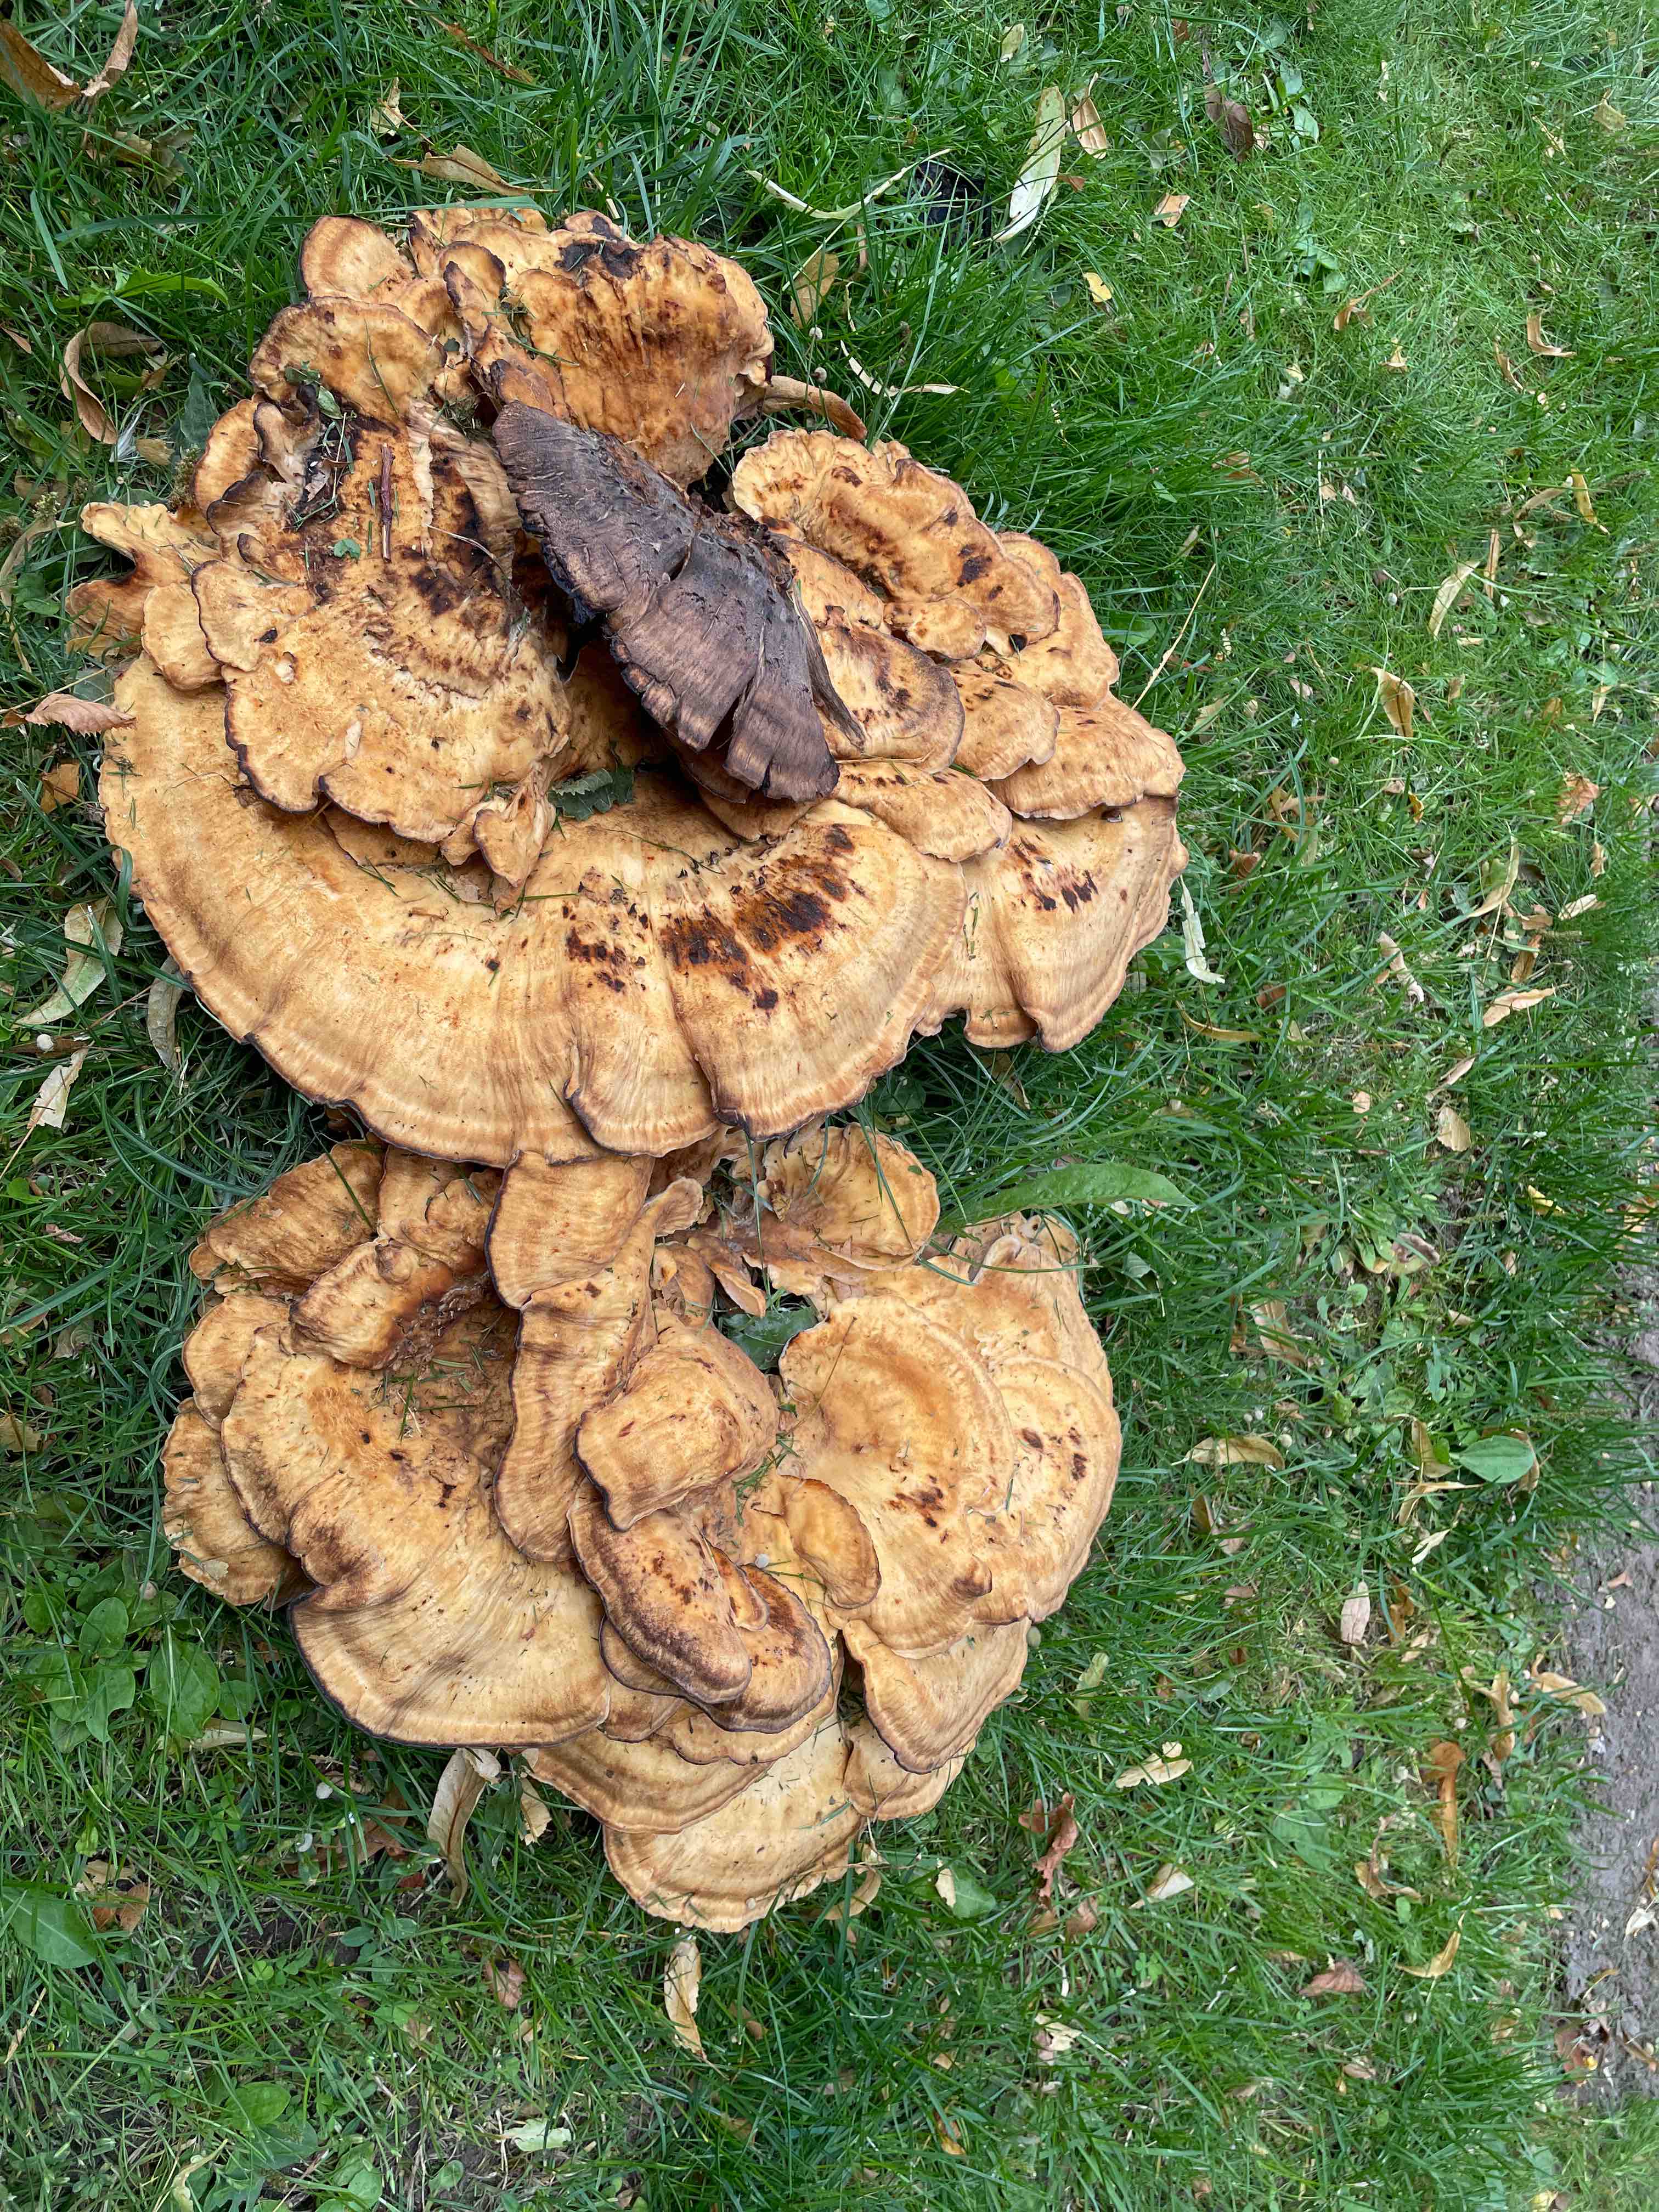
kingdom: Fungi
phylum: Basidiomycota
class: Agaricomycetes
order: Polyporales
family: Meripilaceae
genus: Meripilus
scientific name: Meripilus giganteus
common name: kæmpeporesvamp
